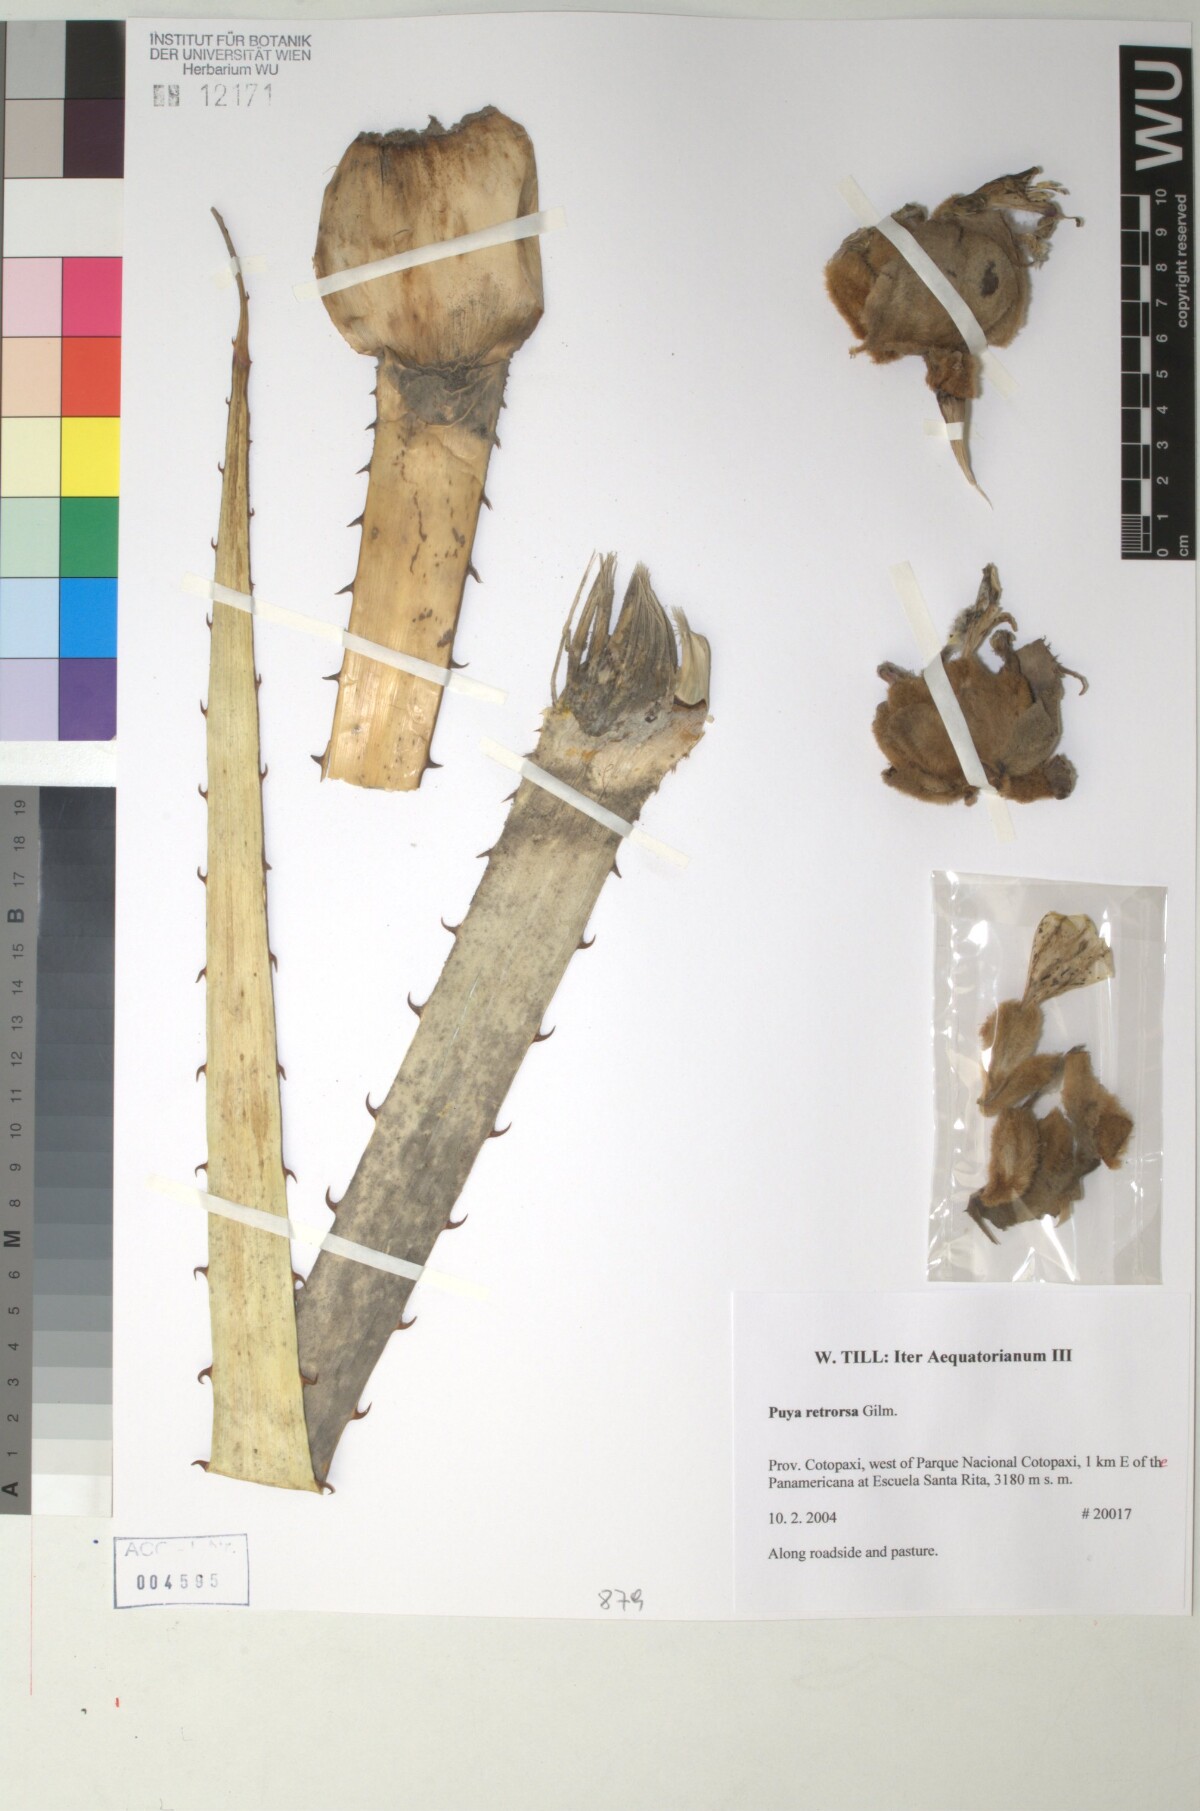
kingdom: Plantae
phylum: Tracheophyta
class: Liliopsida
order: Poales
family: Bromeliaceae
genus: Puya
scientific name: Puya retrorsa
